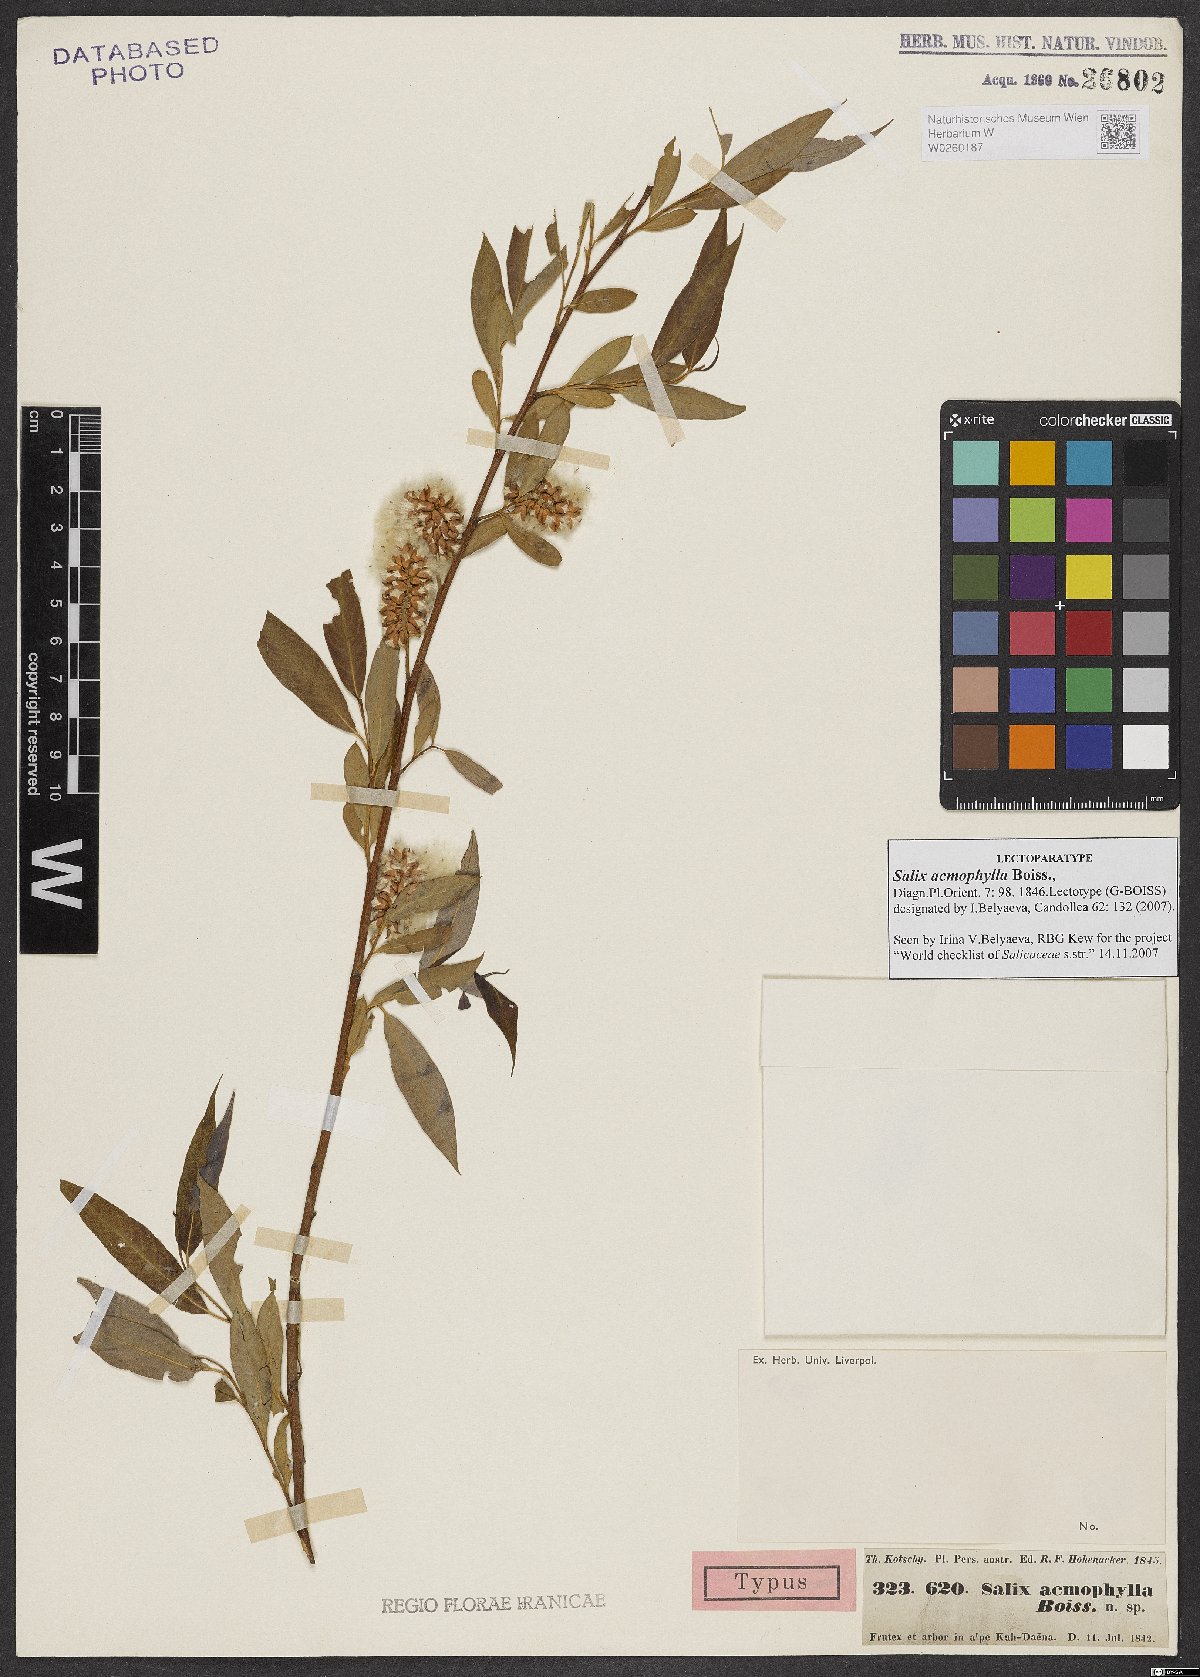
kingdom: Plantae
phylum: Tracheophyta
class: Magnoliopsida
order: Malpighiales
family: Salicaceae
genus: Salix
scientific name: Salix acmophylla
